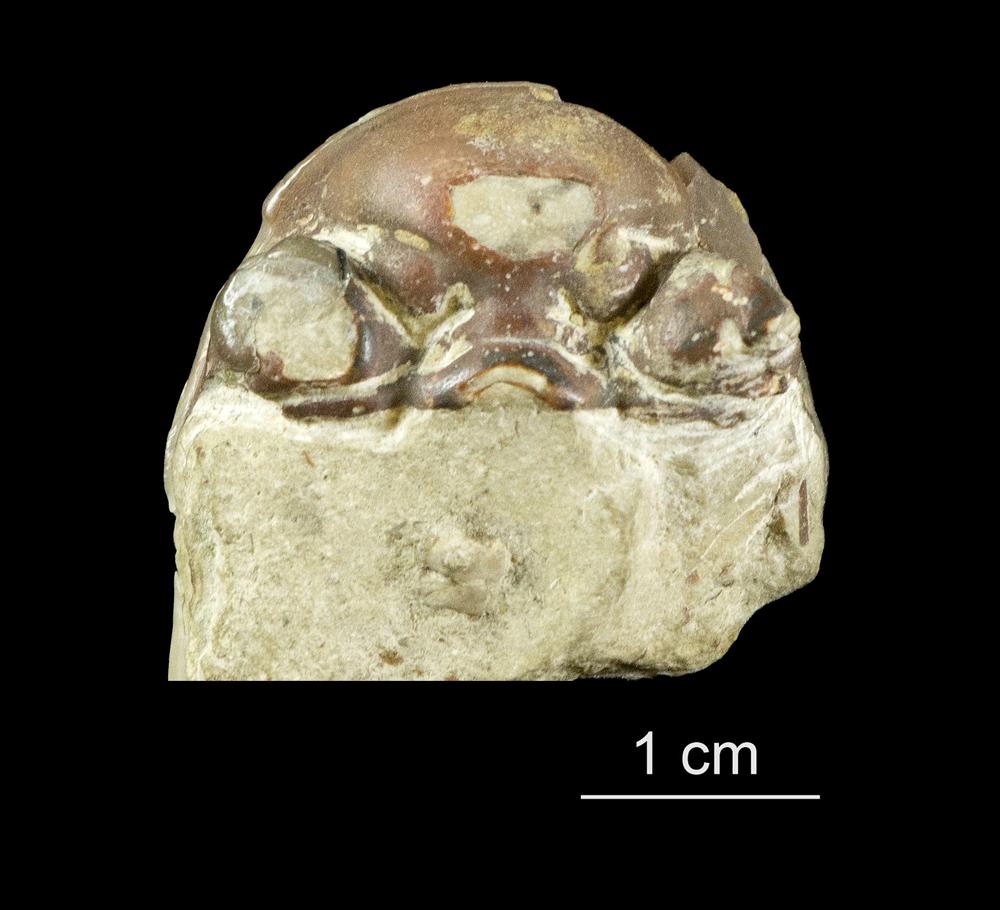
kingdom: Animalia
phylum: Arthropoda
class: Trilobita
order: Phacopida
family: Pterygometopidae
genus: Chasmops
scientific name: Chasmops
